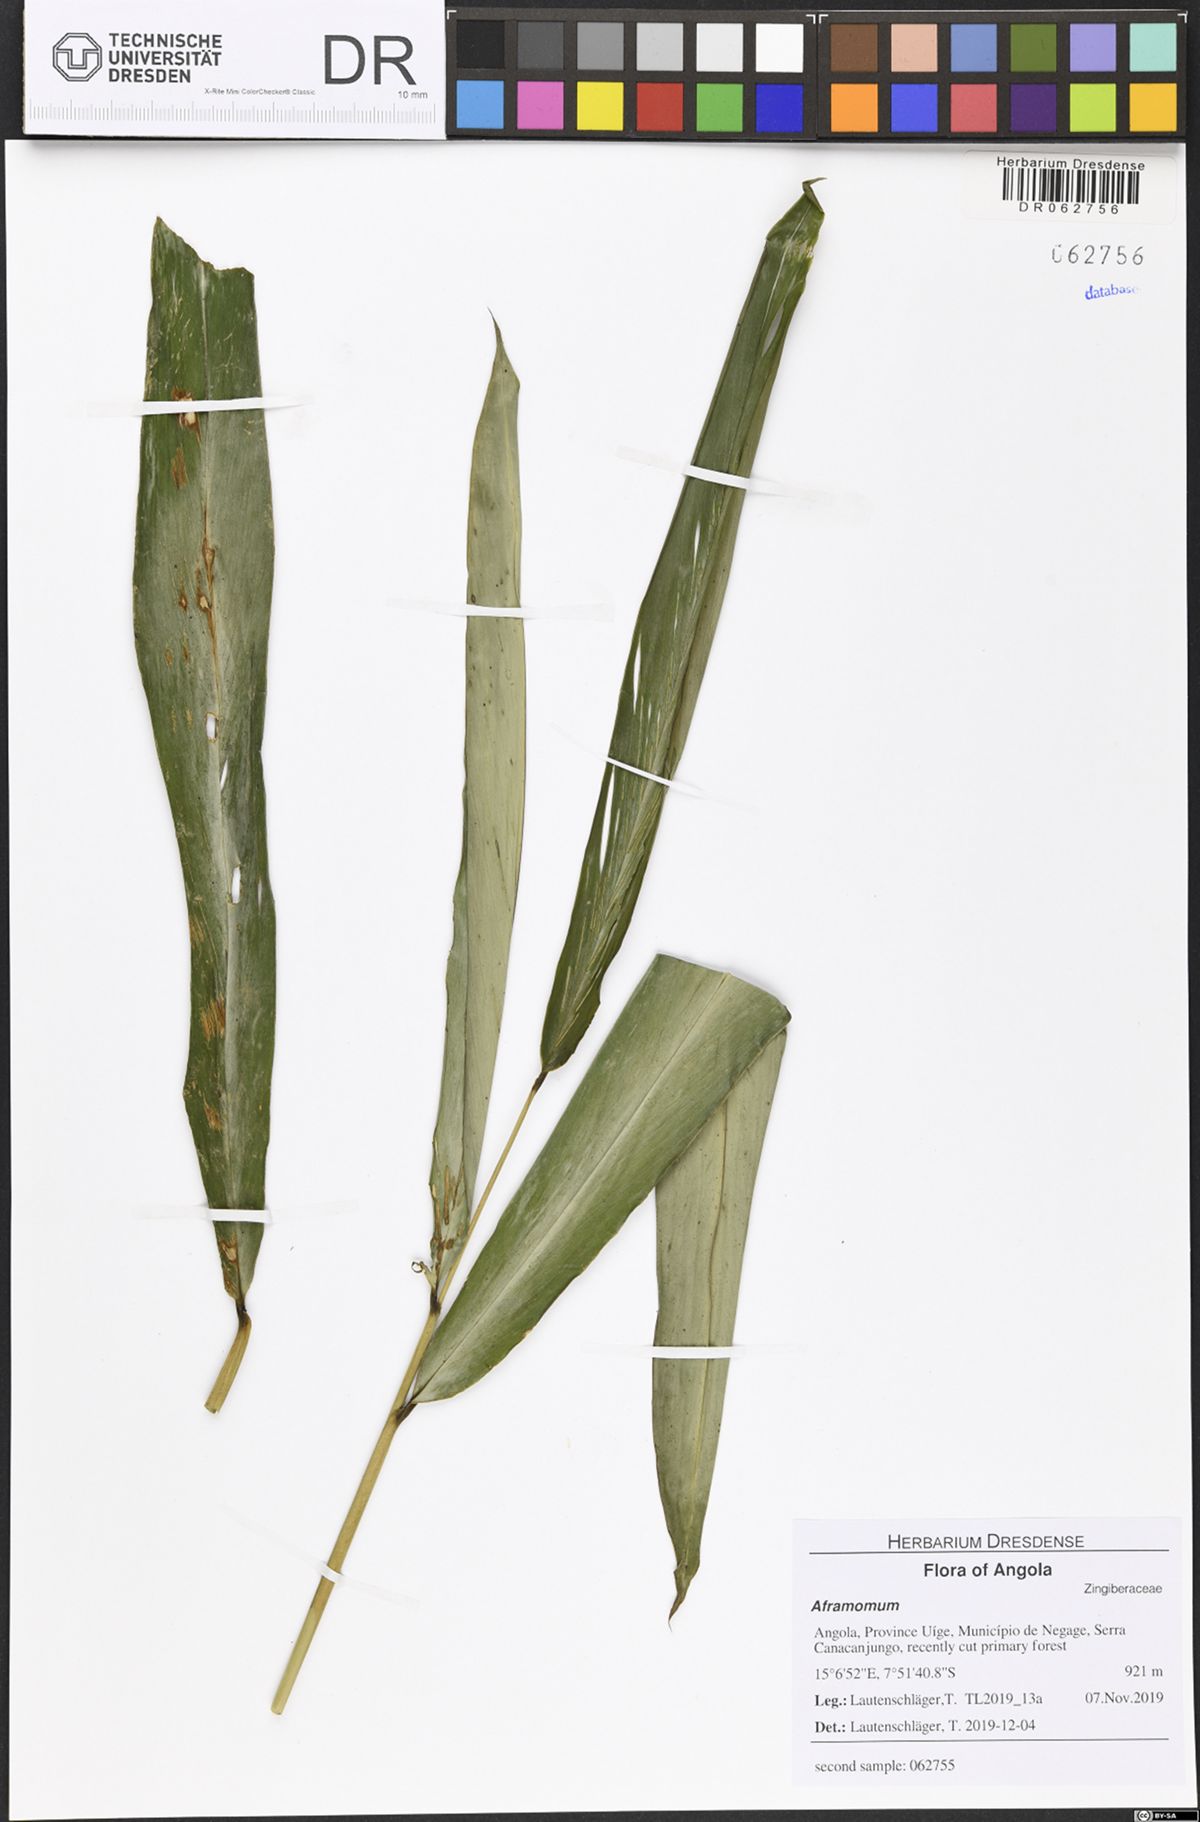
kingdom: Plantae
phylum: Tracheophyta
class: Liliopsida
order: Zingiberales
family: Zingiberaceae
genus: Aframomum
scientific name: Aframomum giganteum
